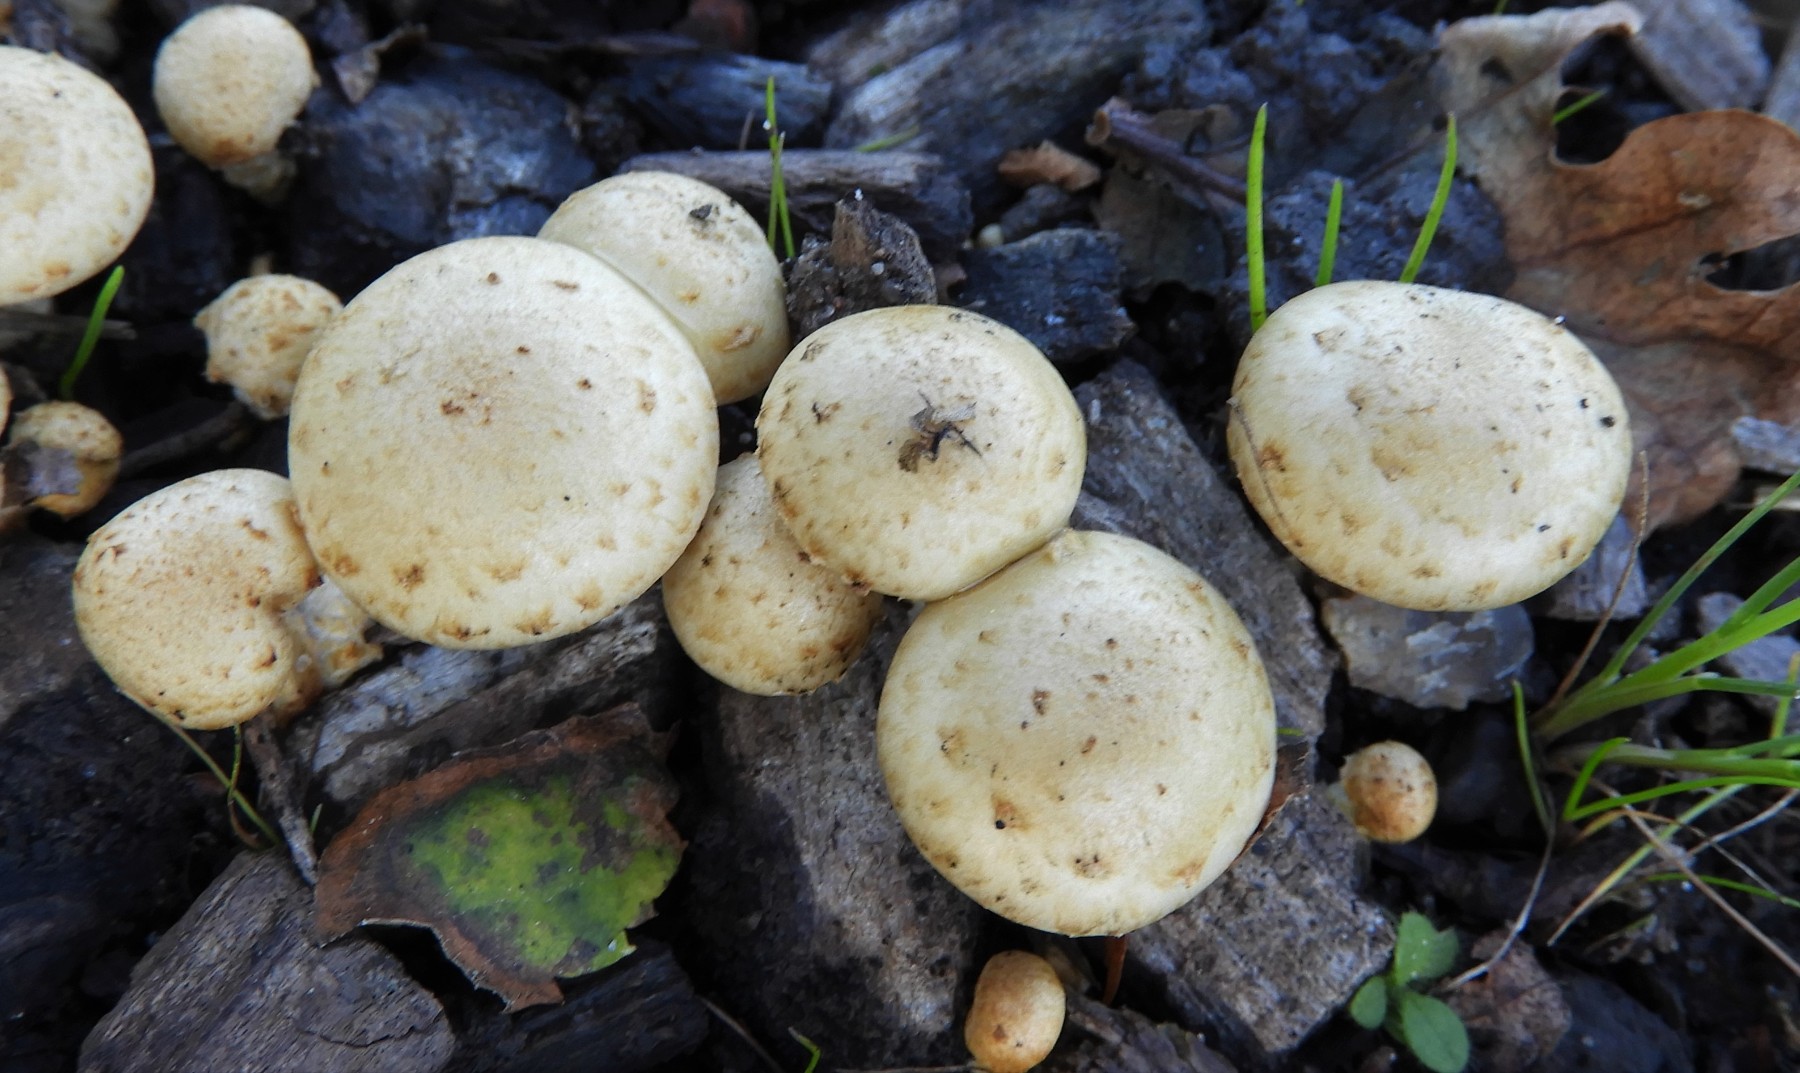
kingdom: Fungi
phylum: Basidiomycota
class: Agaricomycetes
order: Agaricales
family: Strophariaceae
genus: Pholiota
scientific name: Pholiota gummosa
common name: grøngul skælhat
